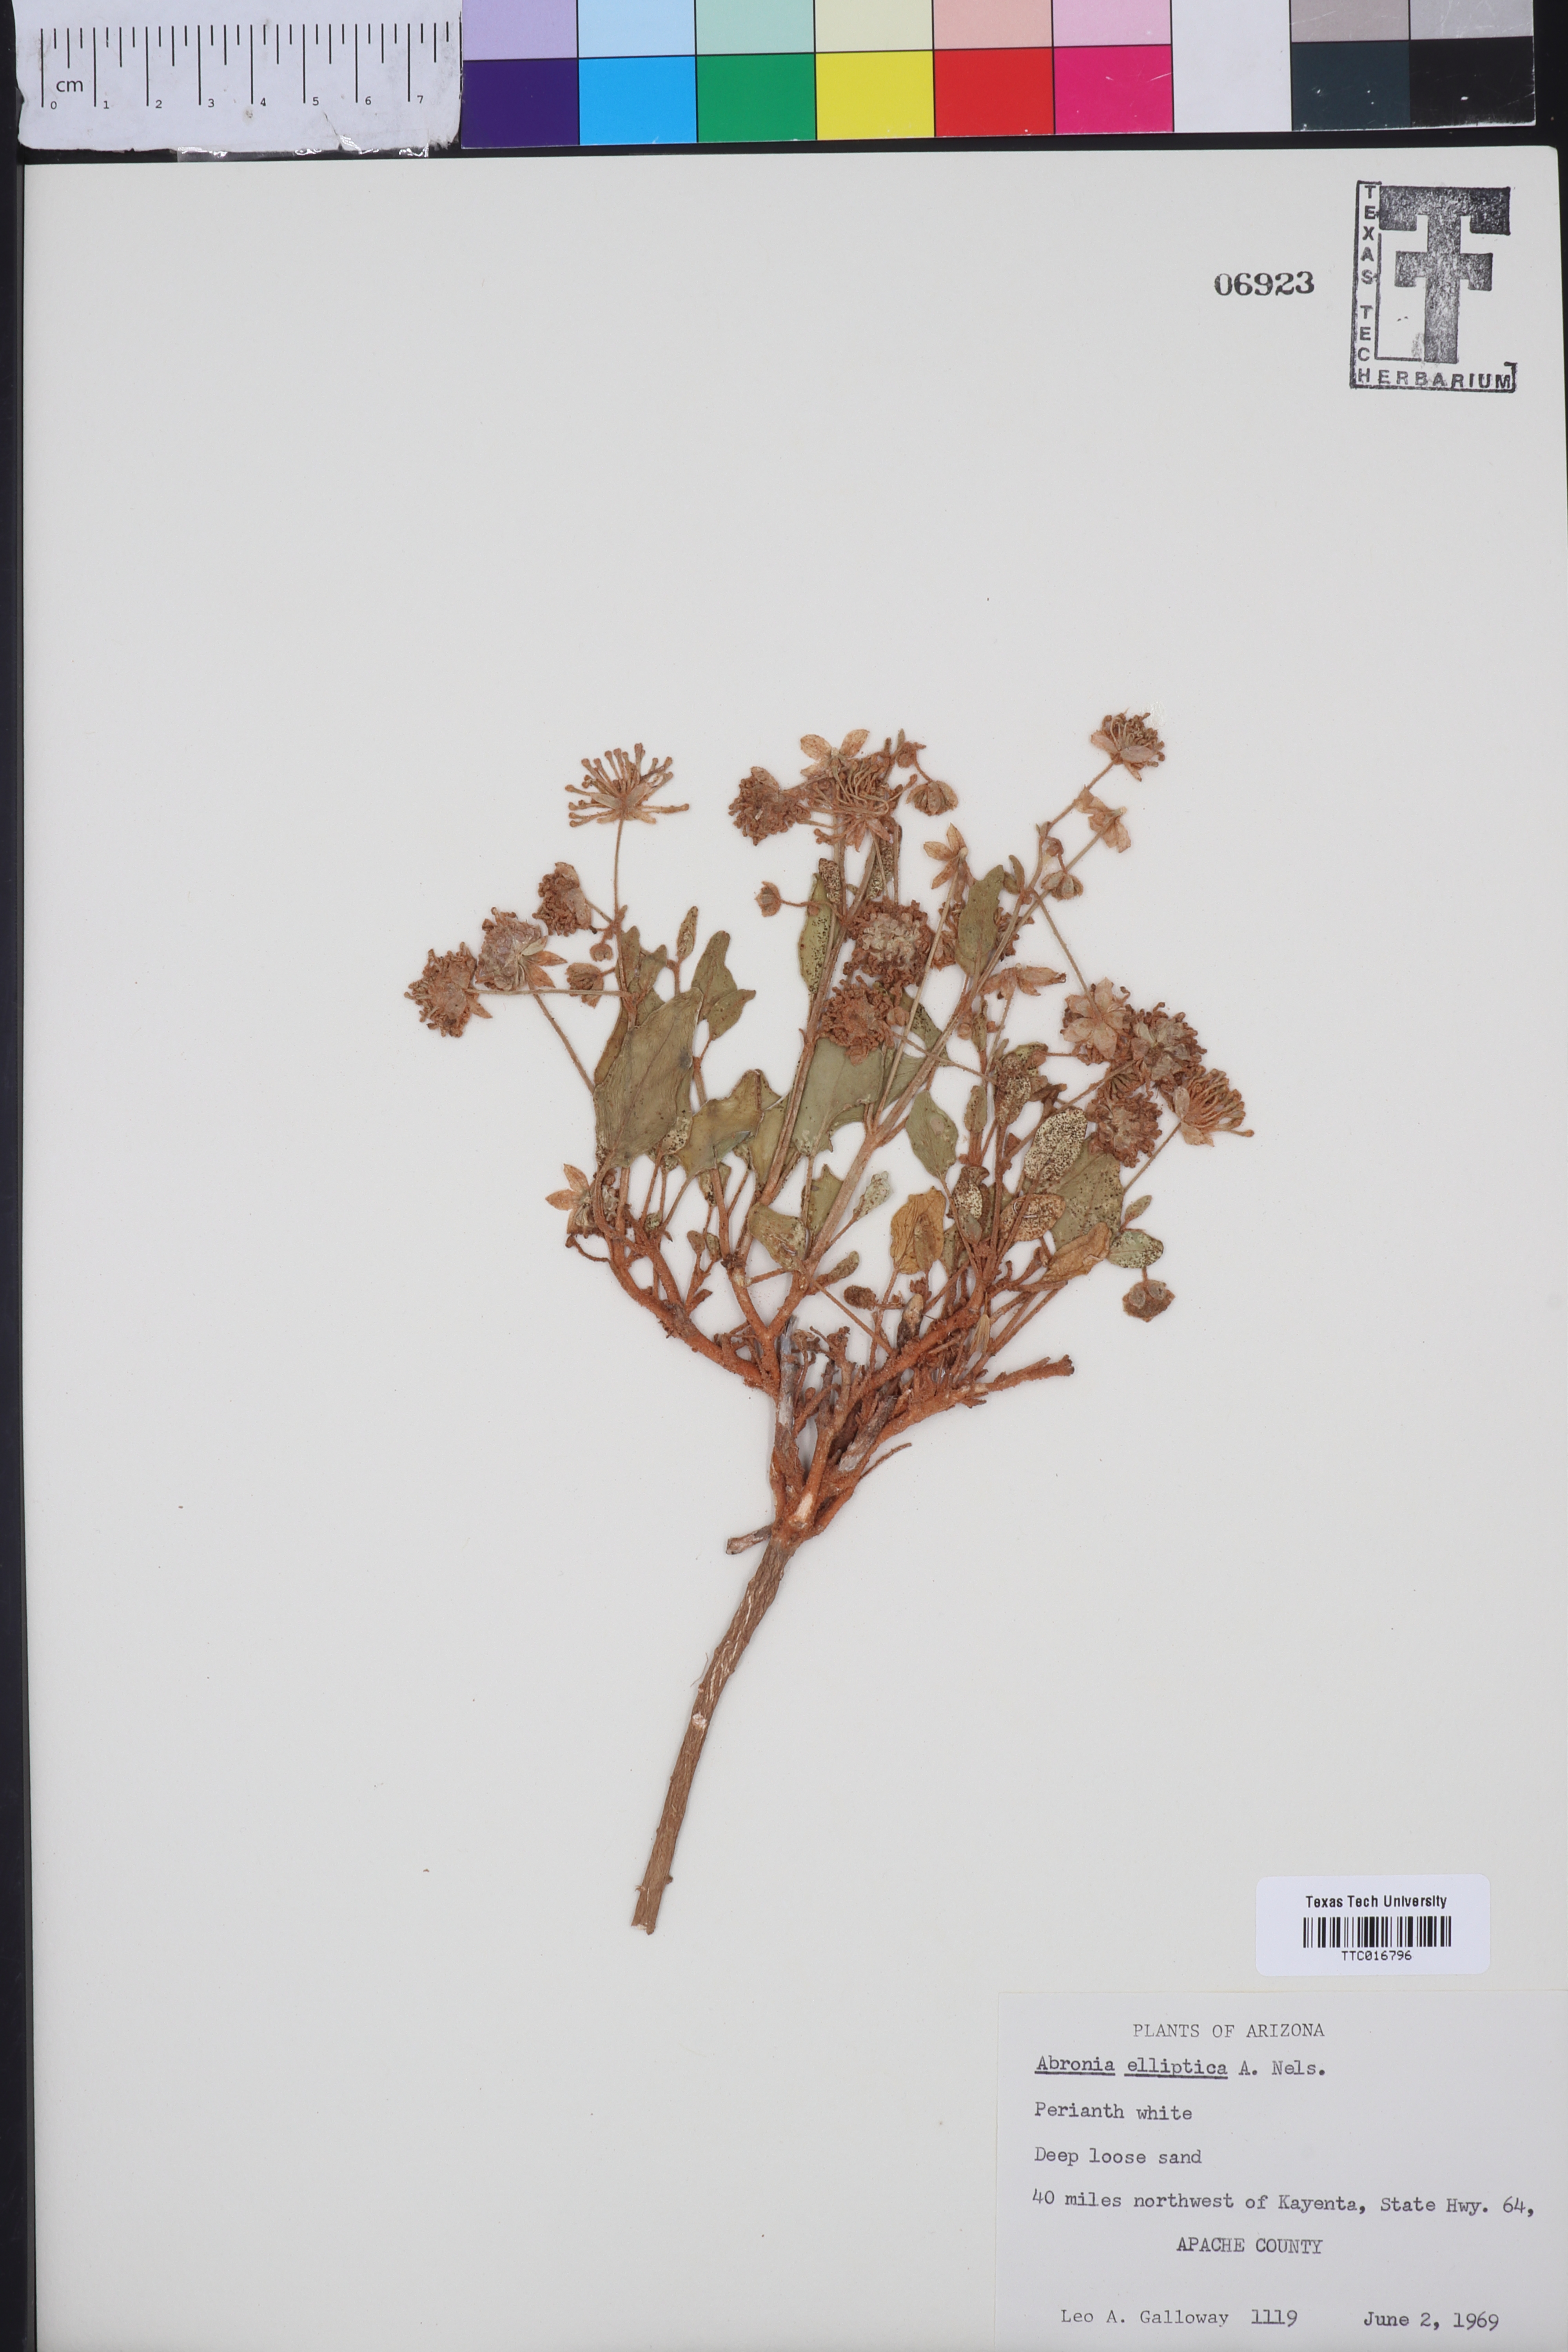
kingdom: Plantae
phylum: Tracheophyta
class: Magnoliopsida
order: Caryophyllales
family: Nyctaginaceae
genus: Abronia
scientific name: Abronia elliptica
